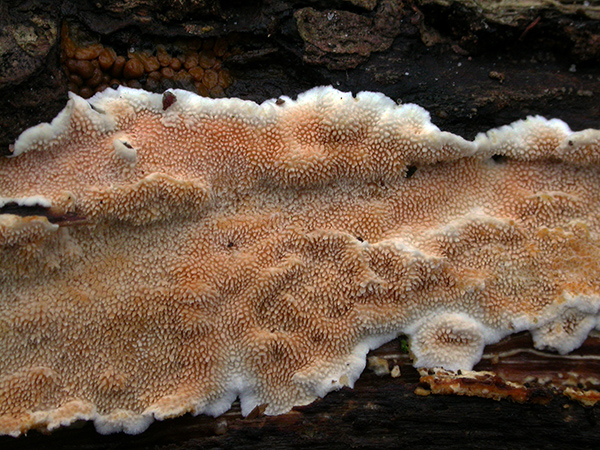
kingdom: Fungi
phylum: Basidiomycota
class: Agaricomycetes
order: Polyporales
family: Steccherinaceae
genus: Steccherinum
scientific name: Steccherinum ochraceum
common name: almindelig skønpig
